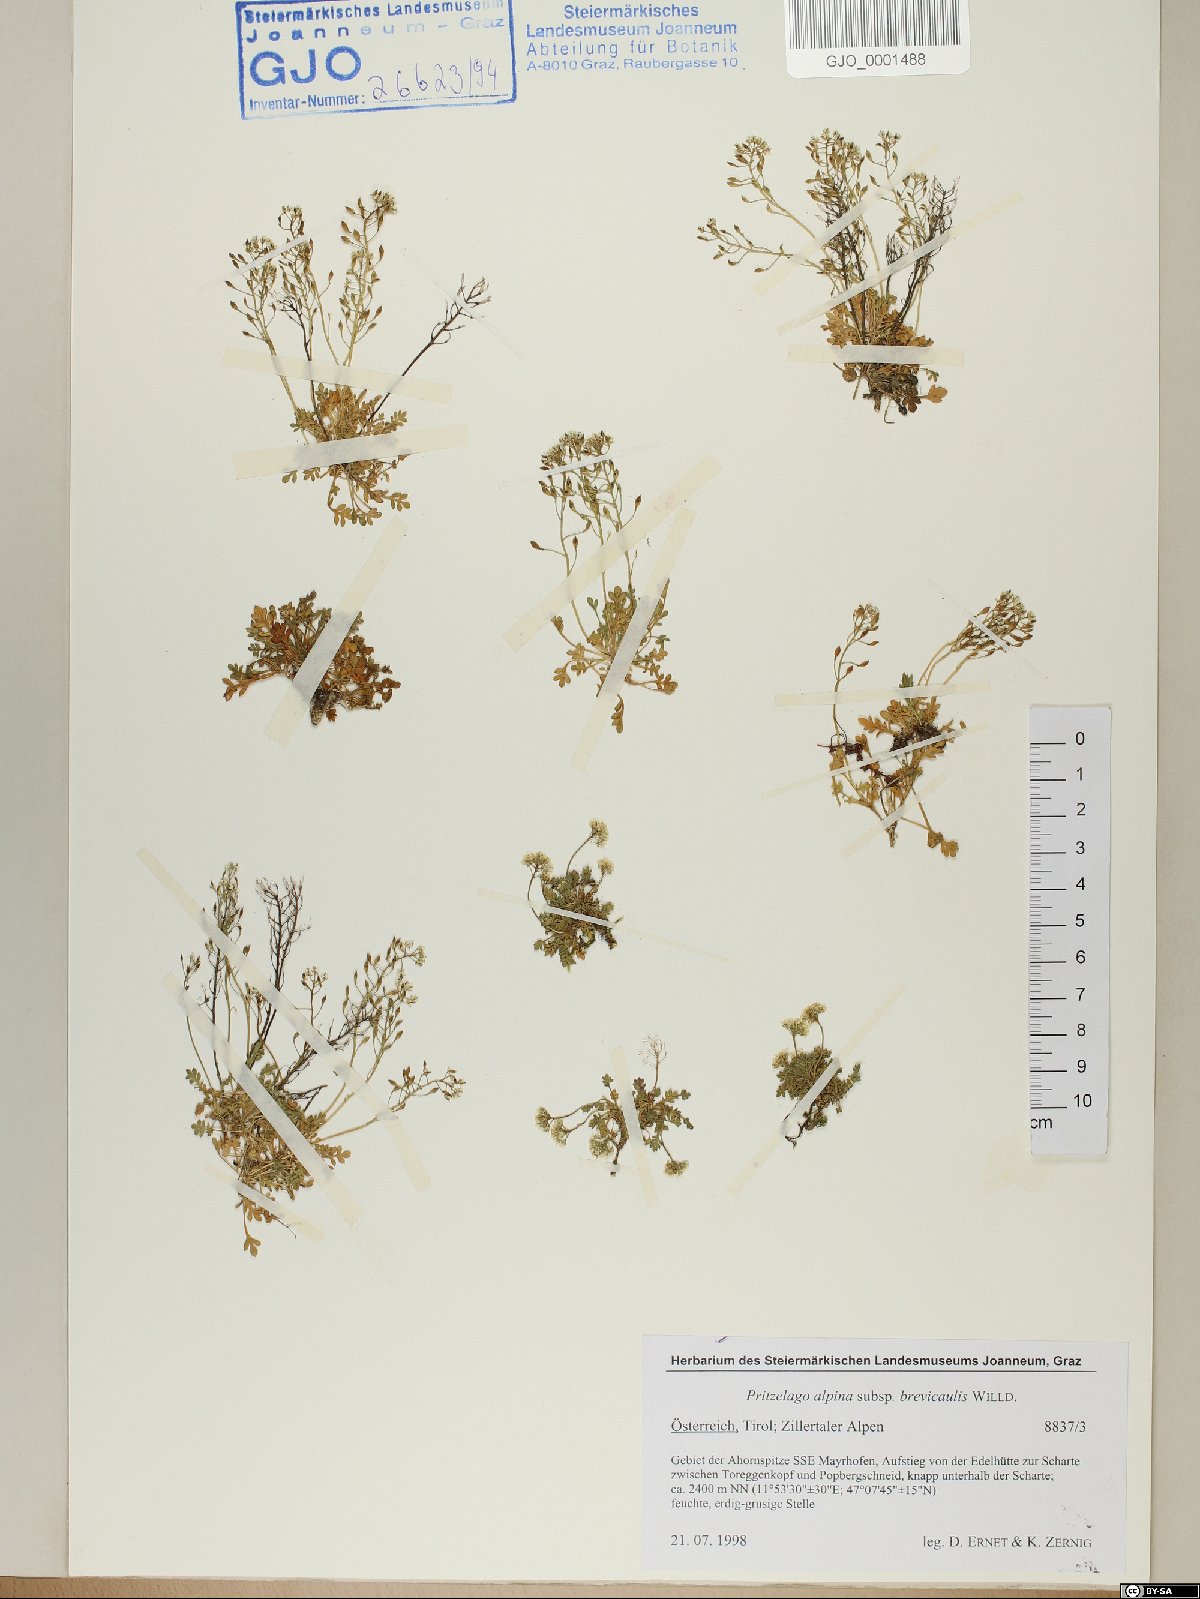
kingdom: Plantae
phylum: Tracheophyta
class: Magnoliopsida
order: Brassicales
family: Brassicaceae
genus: Hornungia
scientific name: Hornungia alpina
